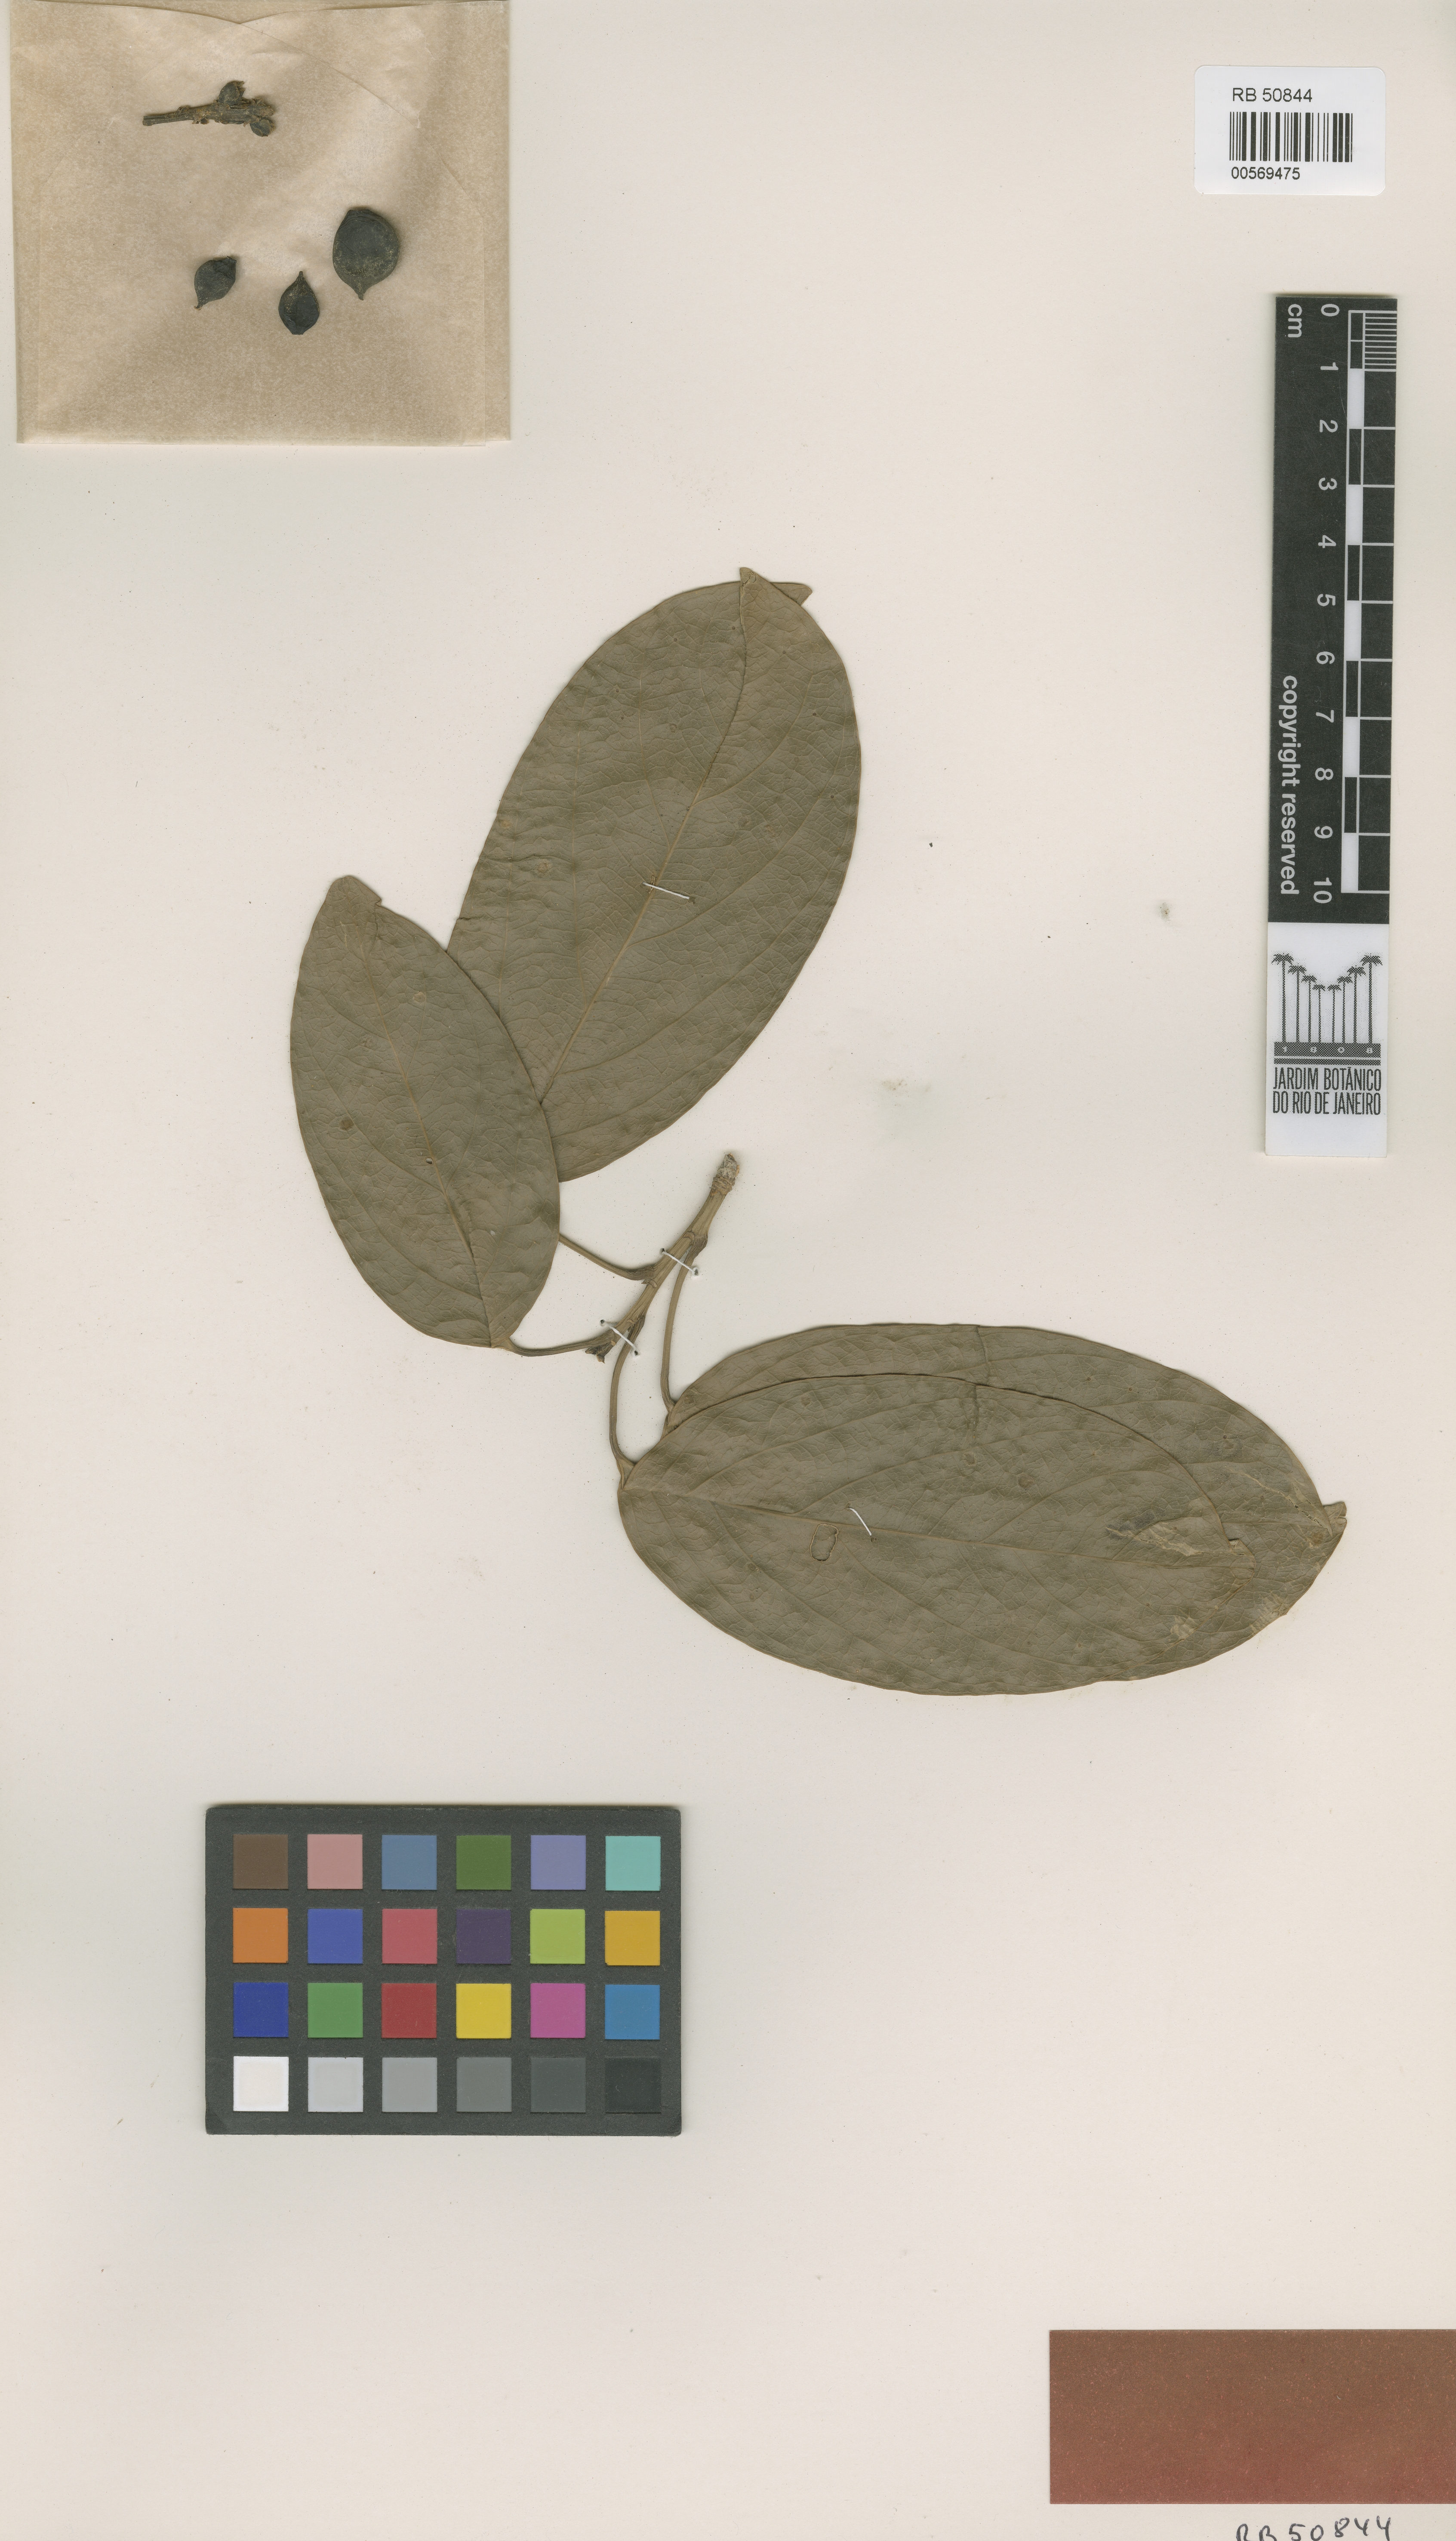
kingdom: Plantae
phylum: Tracheophyta
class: Magnoliopsida
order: Malpighiales
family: Euphorbiaceae
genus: Caryodendron
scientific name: Caryodendron amazonicum
